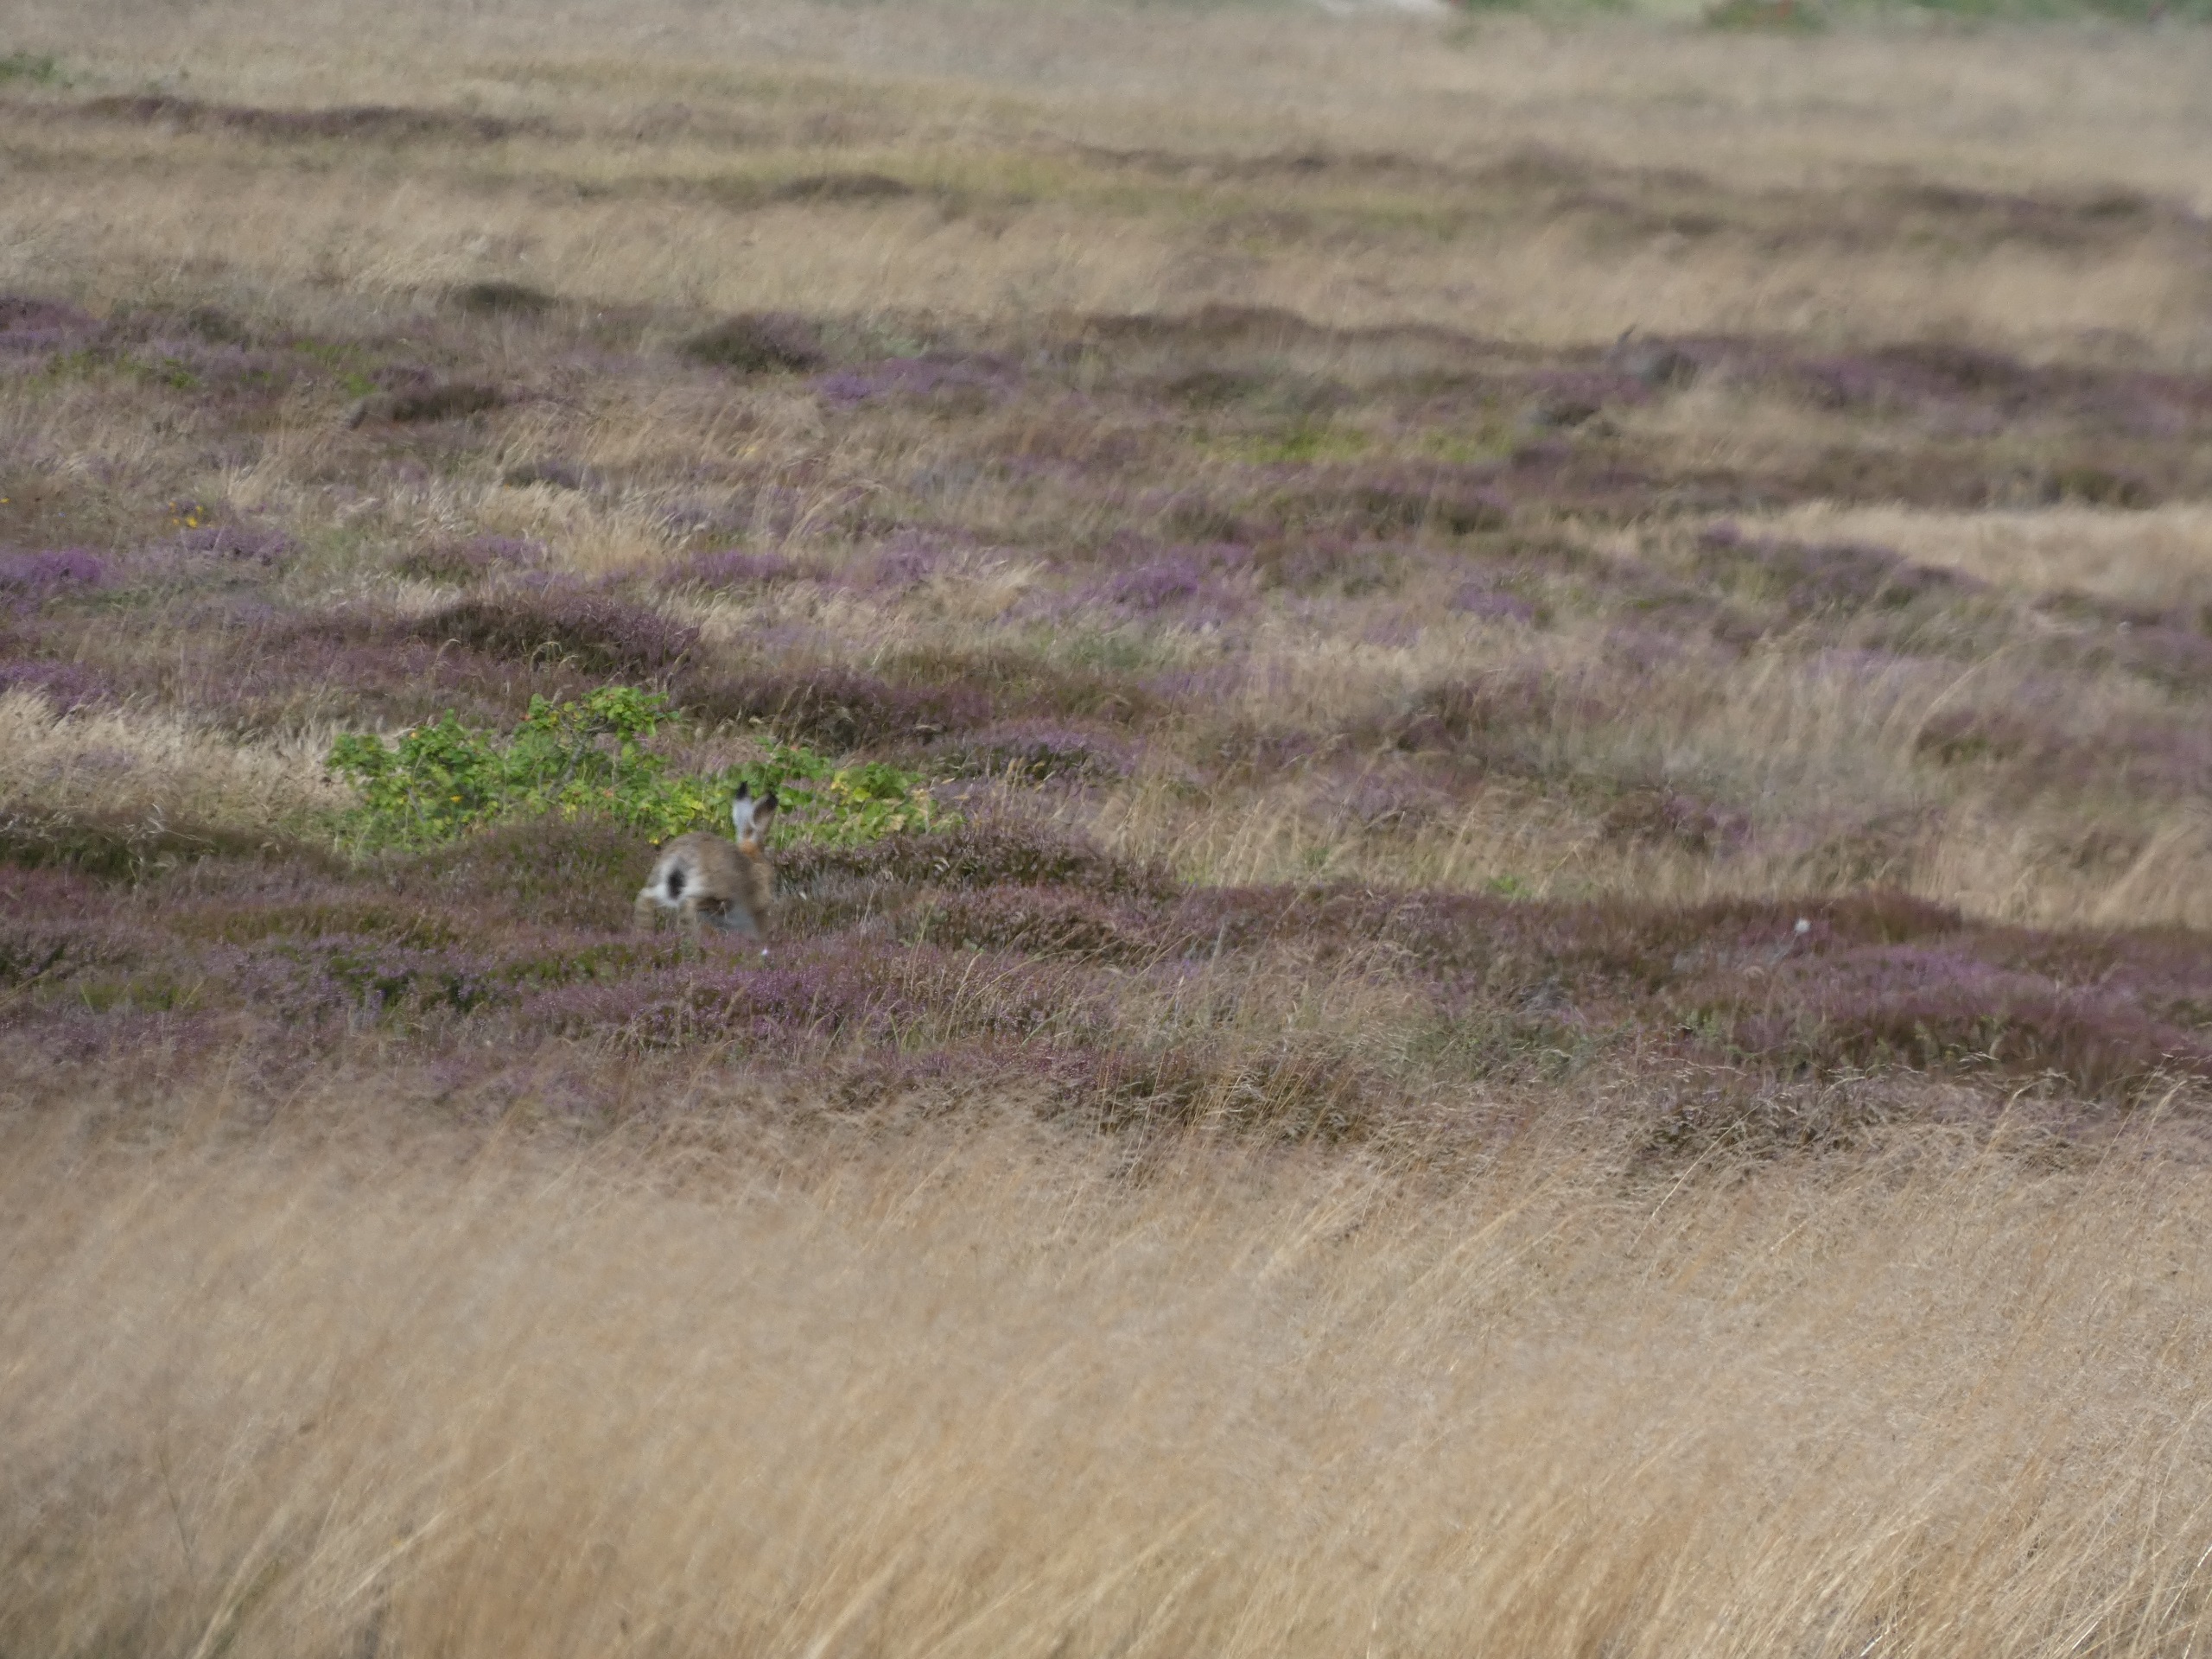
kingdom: Animalia
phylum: Chordata
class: Mammalia
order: Lagomorpha
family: Leporidae
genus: Lepus
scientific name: Lepus europaeus
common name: Hare
